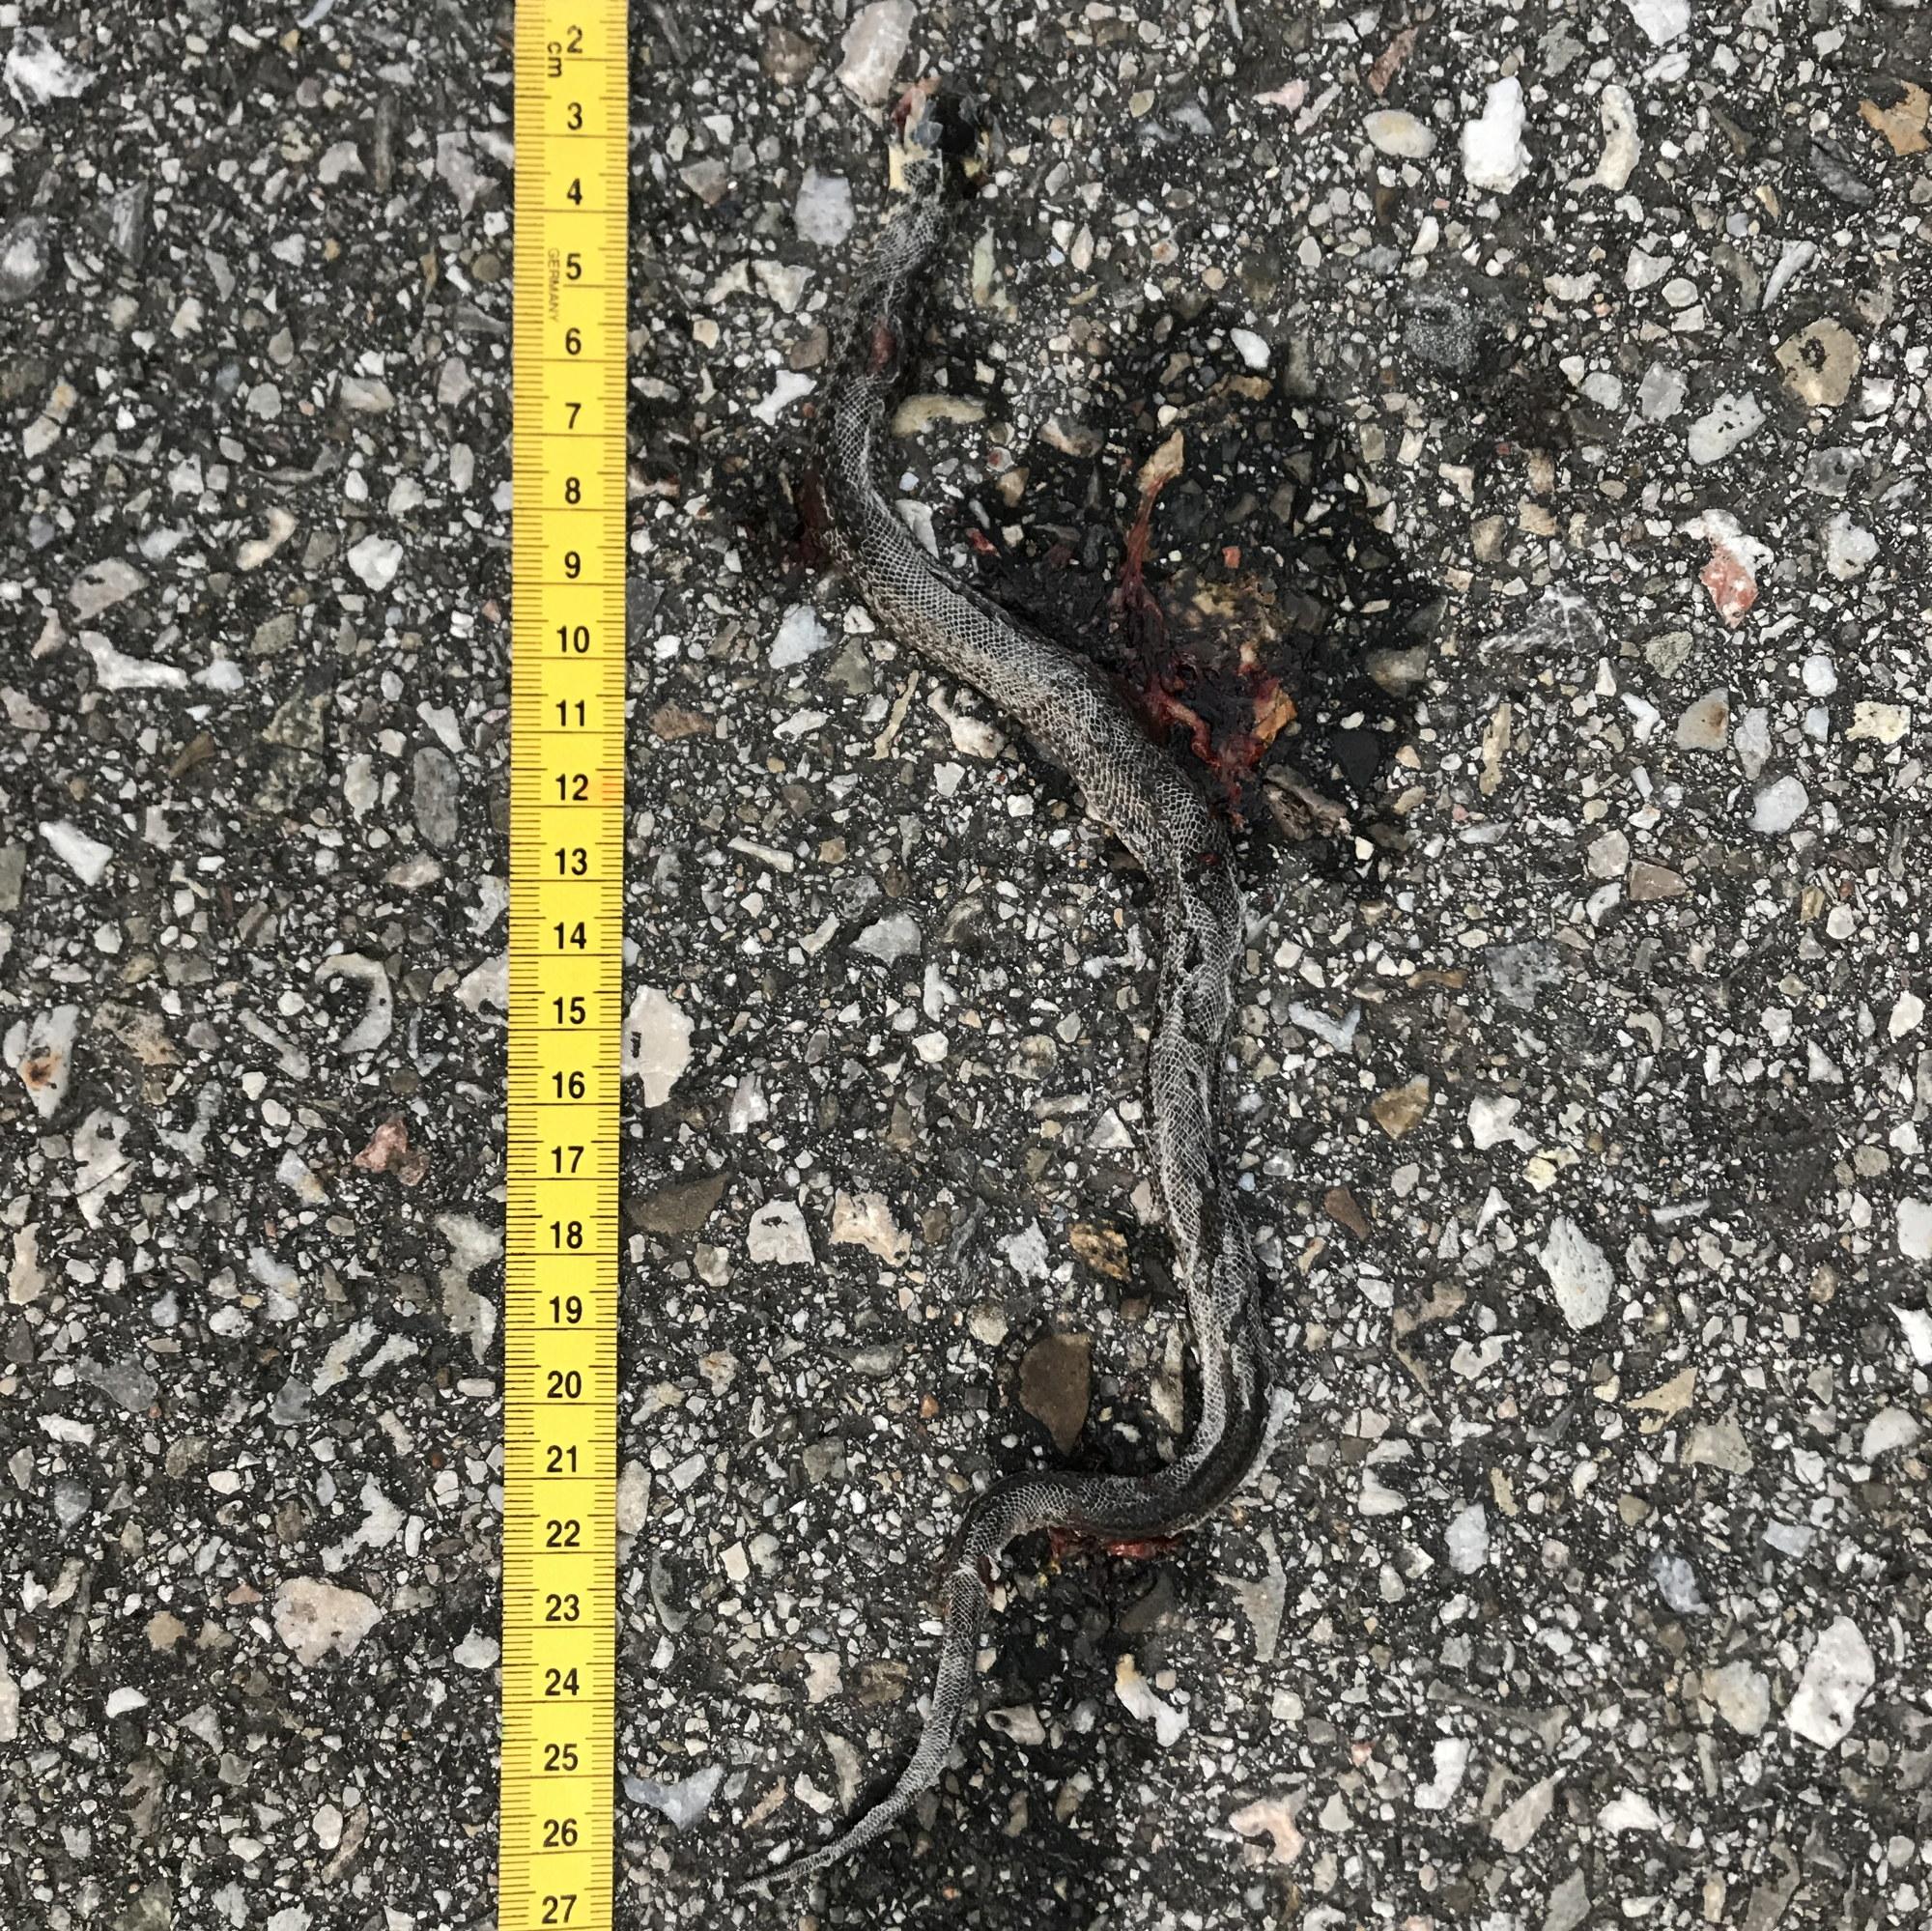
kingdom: Animalia
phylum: Chordata
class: Squamata
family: Colubridae
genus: Natrix
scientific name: Natrix natrix
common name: Grass snake
